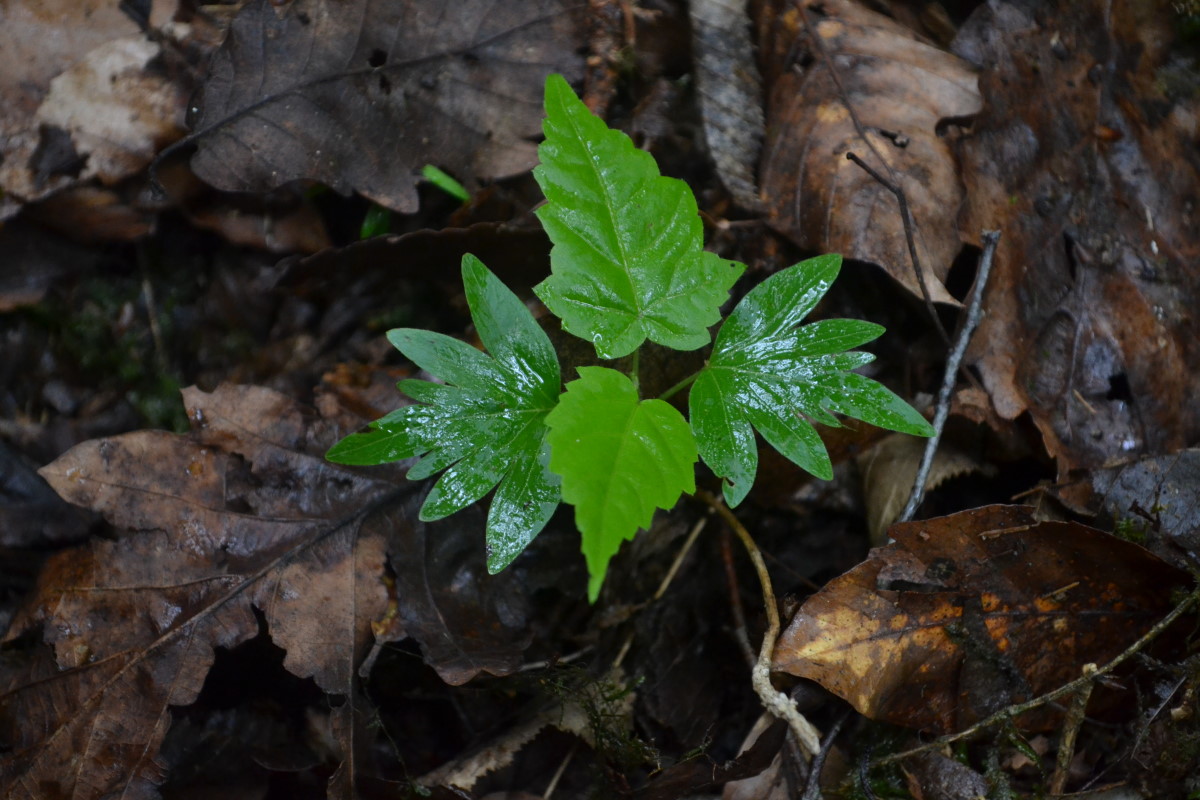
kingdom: Plantae
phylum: Tracheophyta
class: Magnoliopsida
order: Malvales
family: Malvaceae
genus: Tilia
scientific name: Tilia
